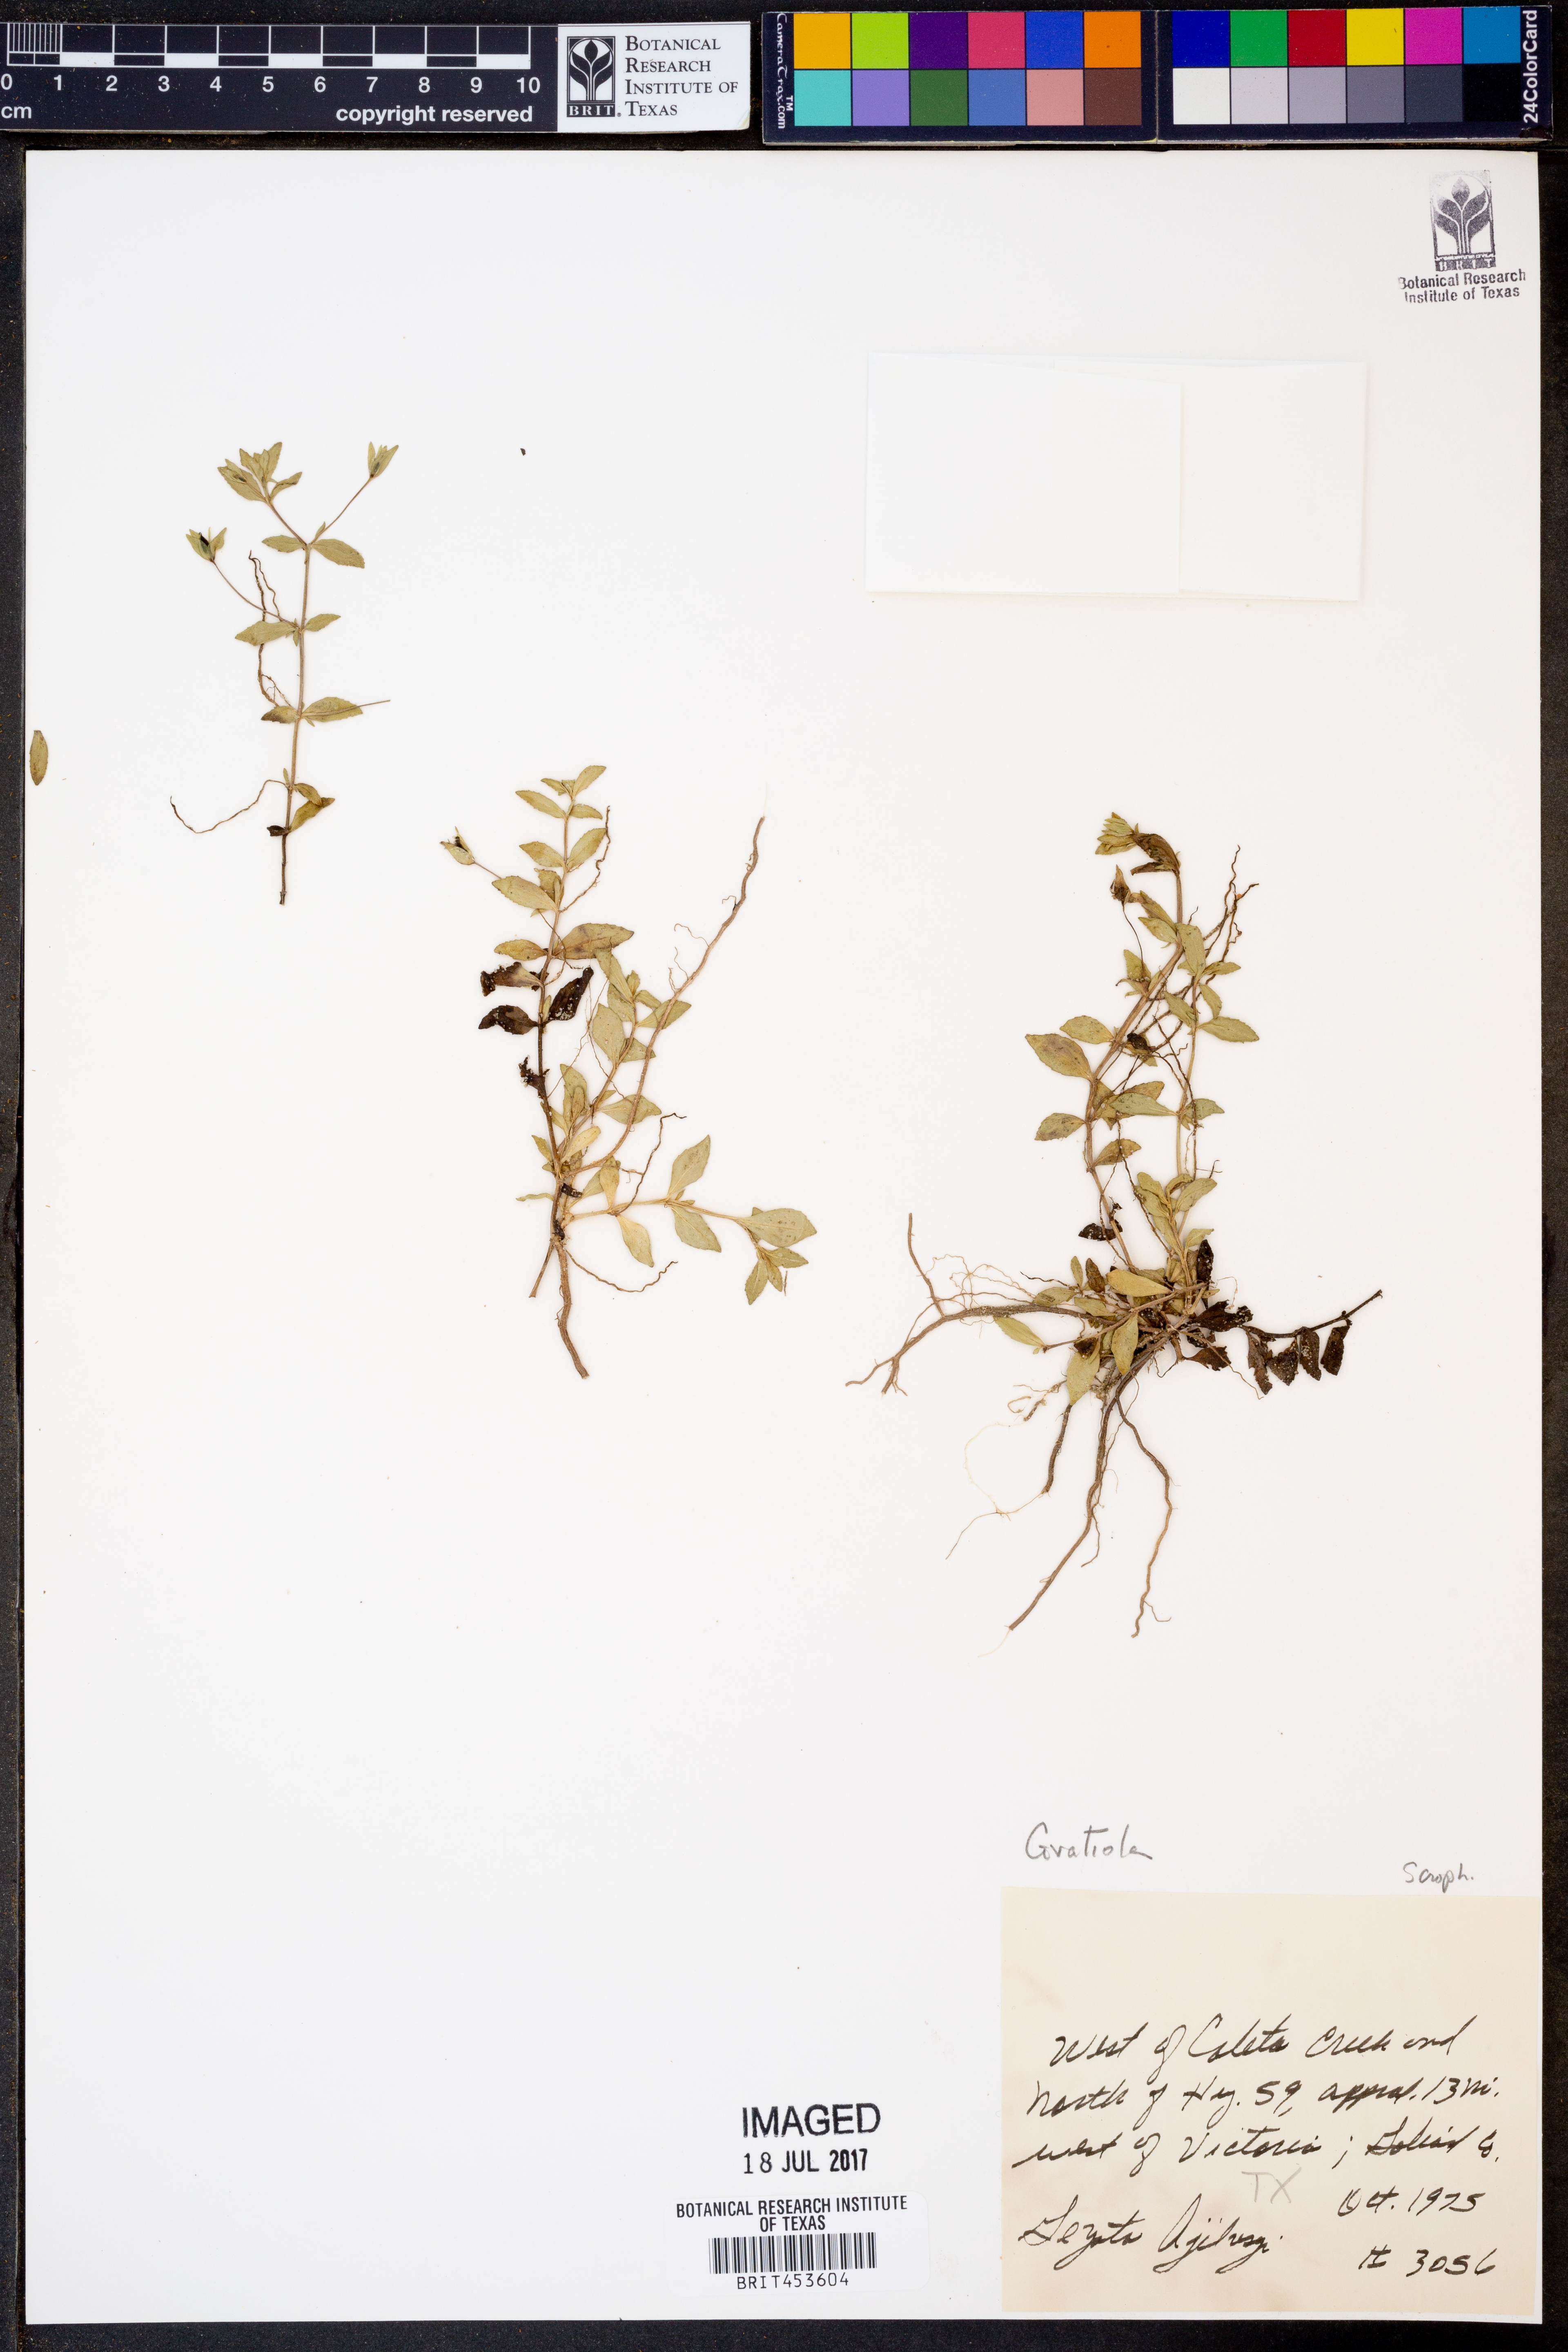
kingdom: Plantae
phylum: Tracheophyta
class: Magnoliopsida
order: Lamiales
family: Plantaginaceae
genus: Gratiola
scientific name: Gratiola
